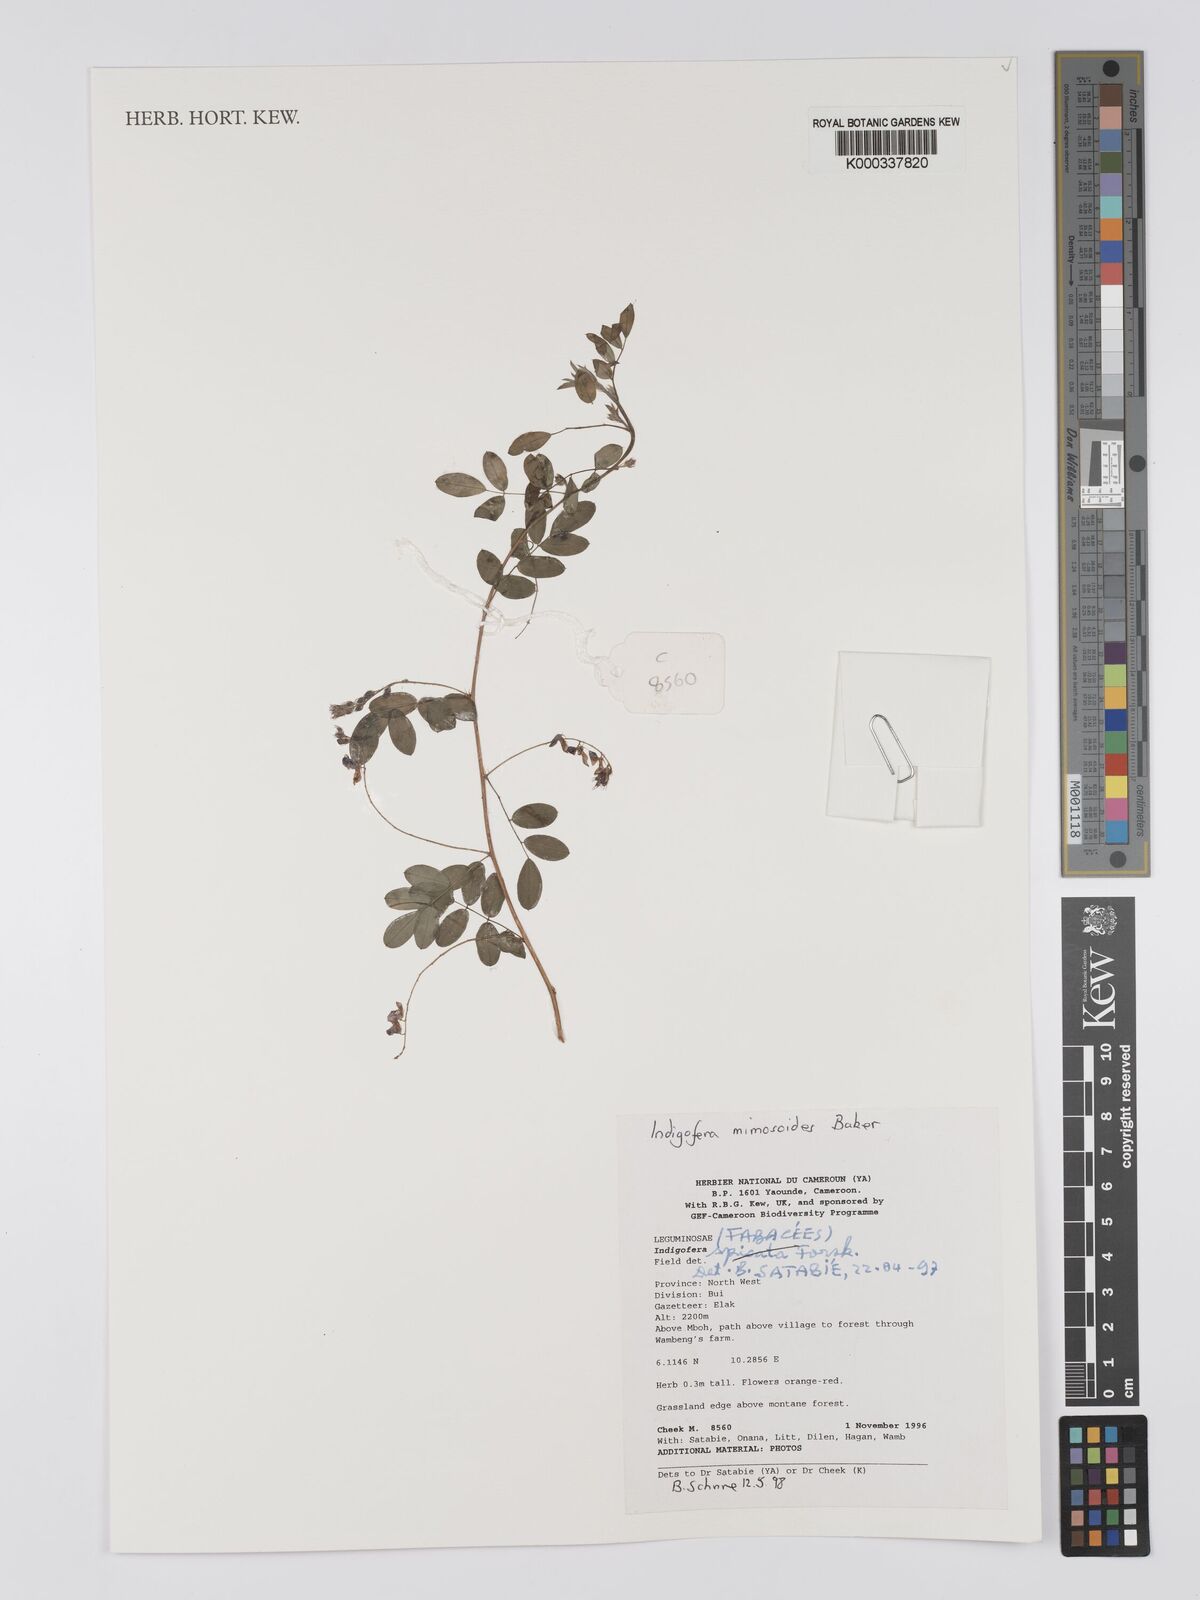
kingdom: Plantae
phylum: Tracheophyta
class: Magnoliopsida
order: Fabales
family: Fabaceae
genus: Indigofera
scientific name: Indigofera spicata
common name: Creeping indigo
